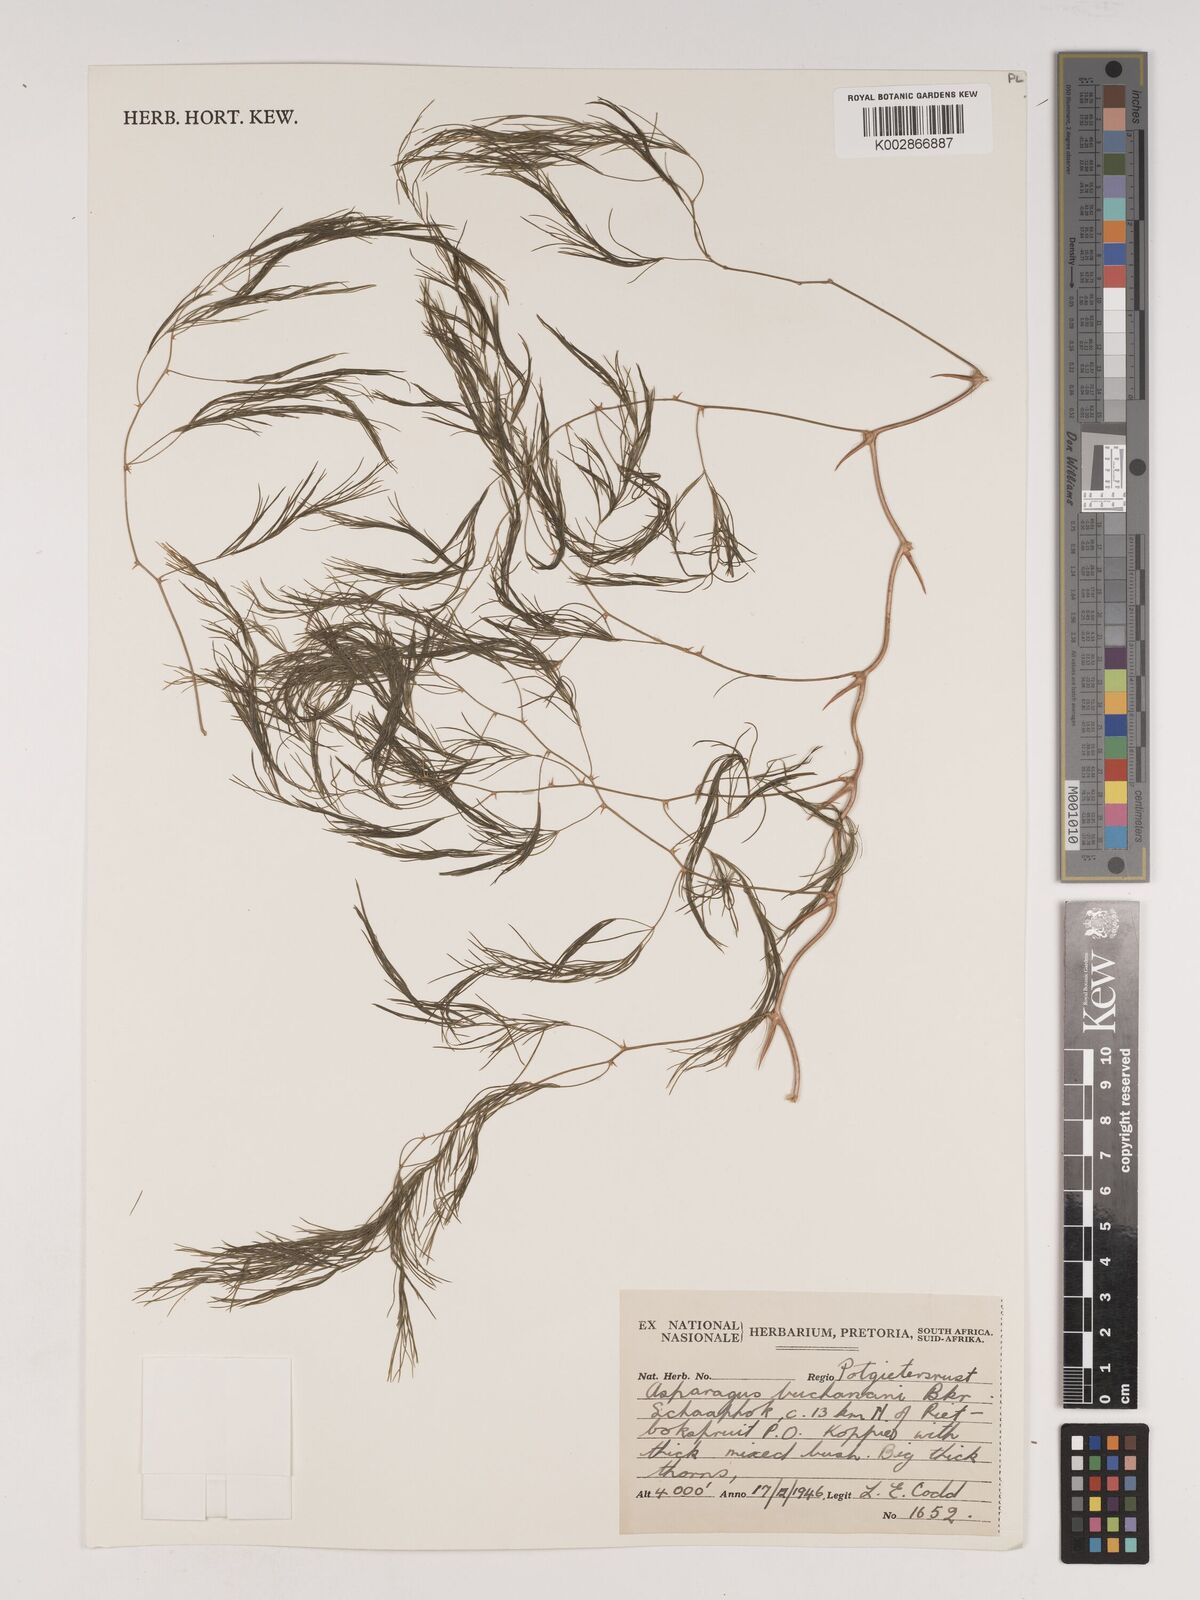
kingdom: Plantae
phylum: Tracheophyta
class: Liliopsida
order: Asparagales
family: Asparagaceae
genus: Asparagus
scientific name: Asparagus buchananii
